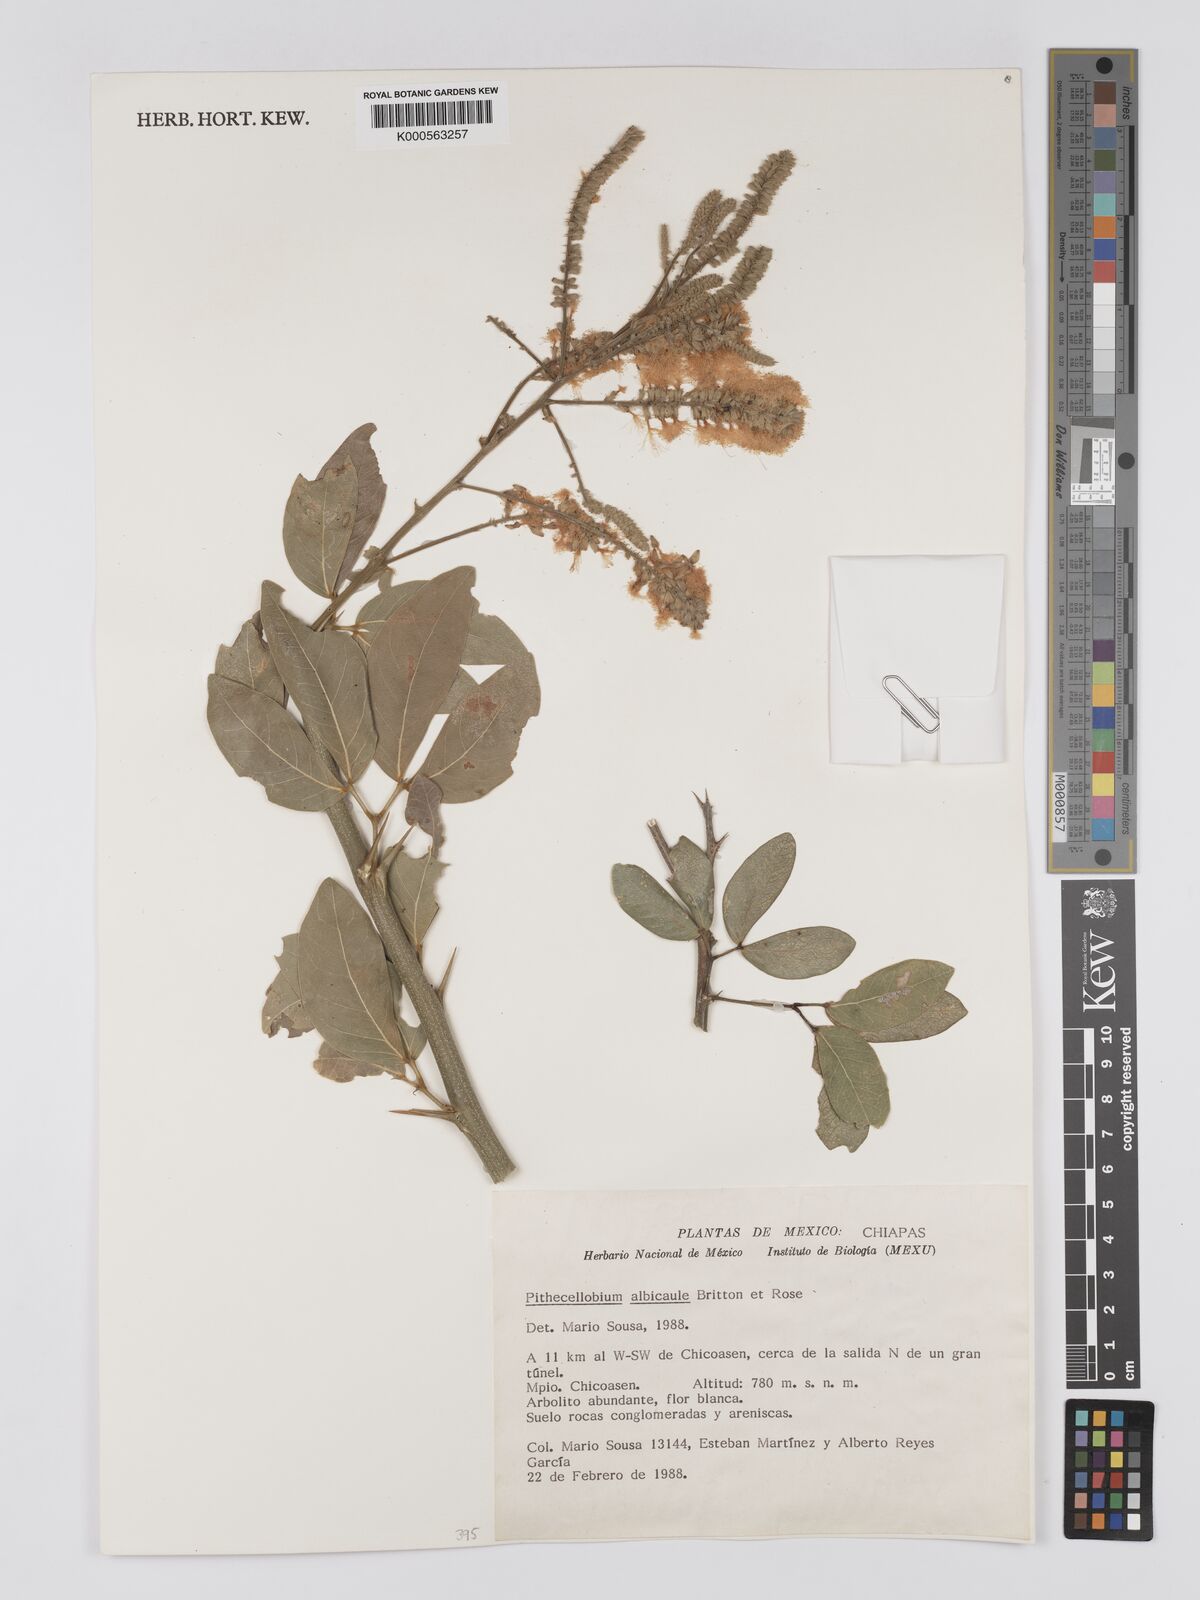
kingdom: Plantae
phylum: Tracheophyta
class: Magnoliopsida
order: Fabales
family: Fabaceae
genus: Pithecellobium
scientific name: Pithecellobium lanceolatum
